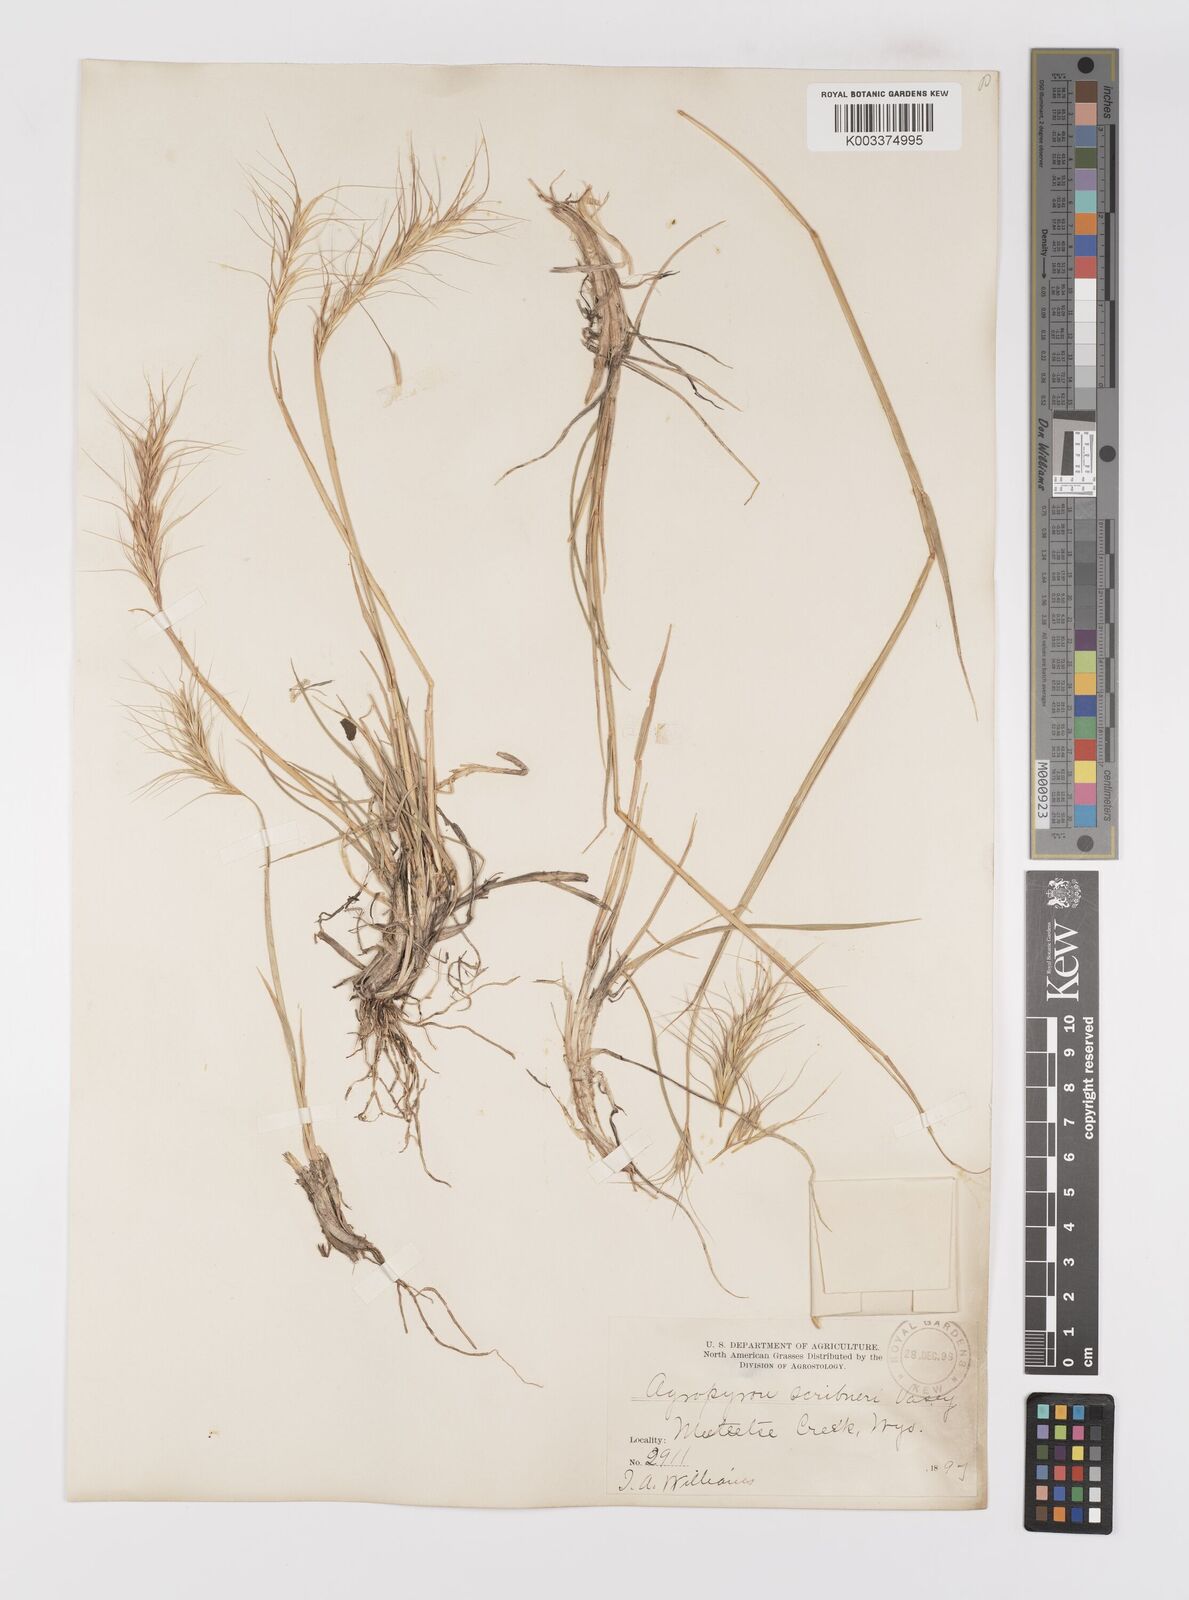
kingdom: Plantae
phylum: Tracheophyta
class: Liliopsida
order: Poales
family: Poaceae
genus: Elymus
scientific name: Elymus scribneri
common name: Scribner's wheatgrass
